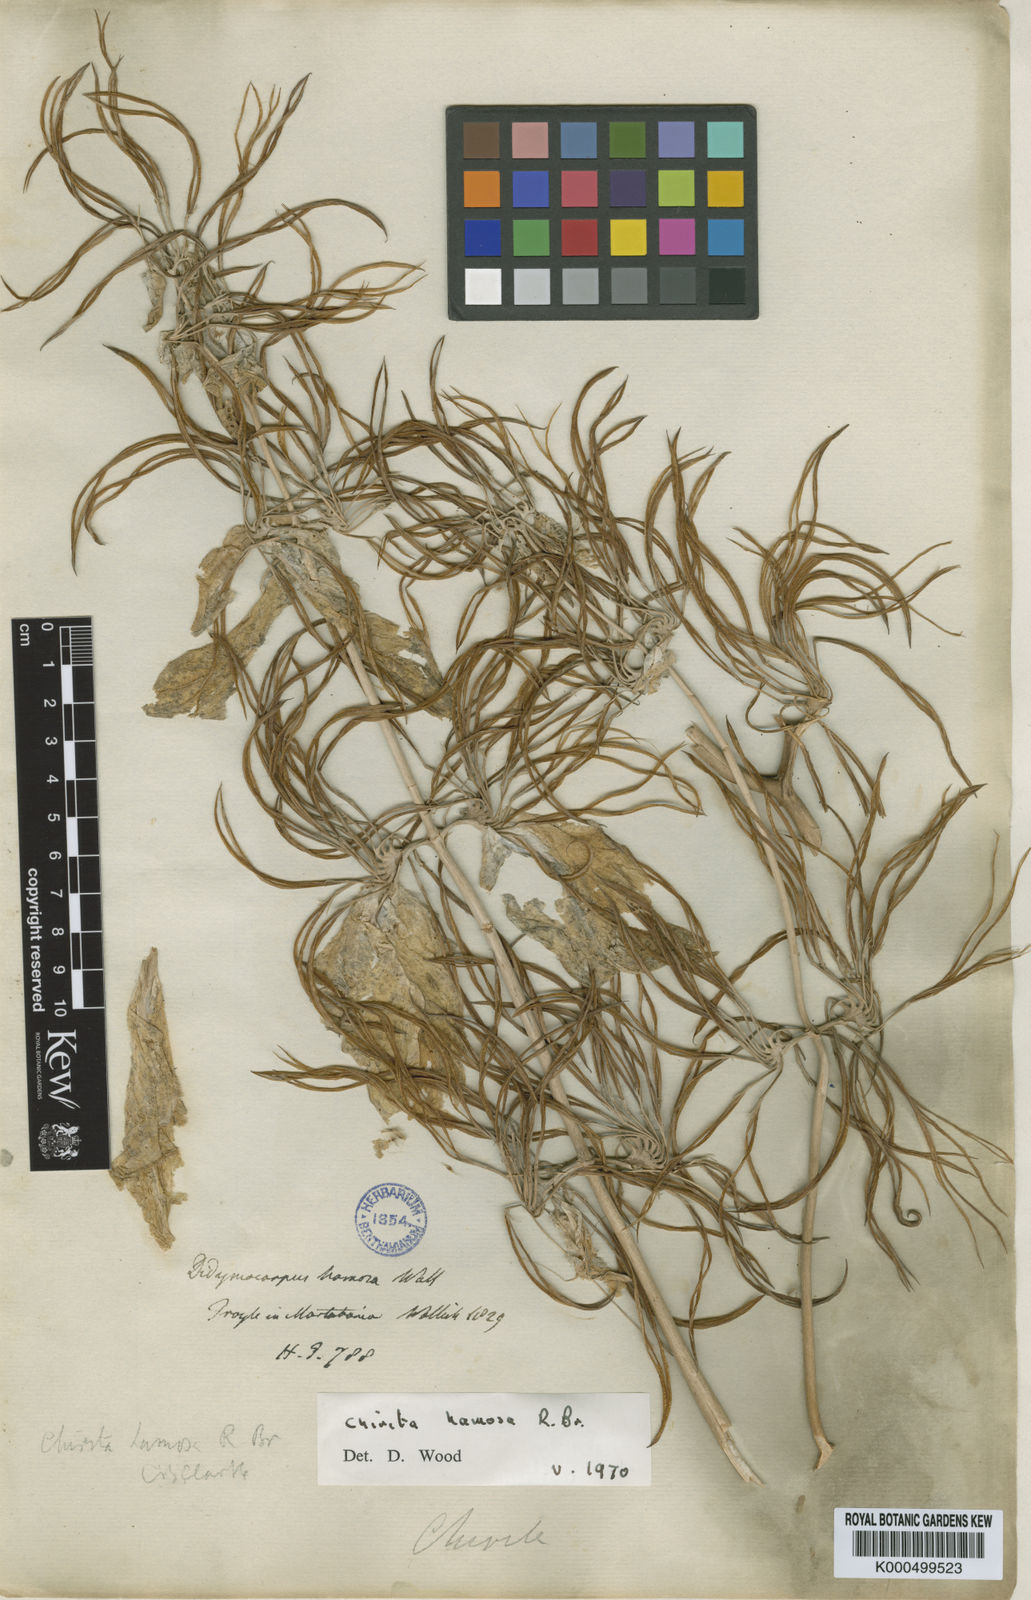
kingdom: Plantae
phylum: Tracheophyta
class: Magnoliopsida
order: Lamiales
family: Gesneriaceae
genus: Microchirita
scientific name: Microchirita albiflora
